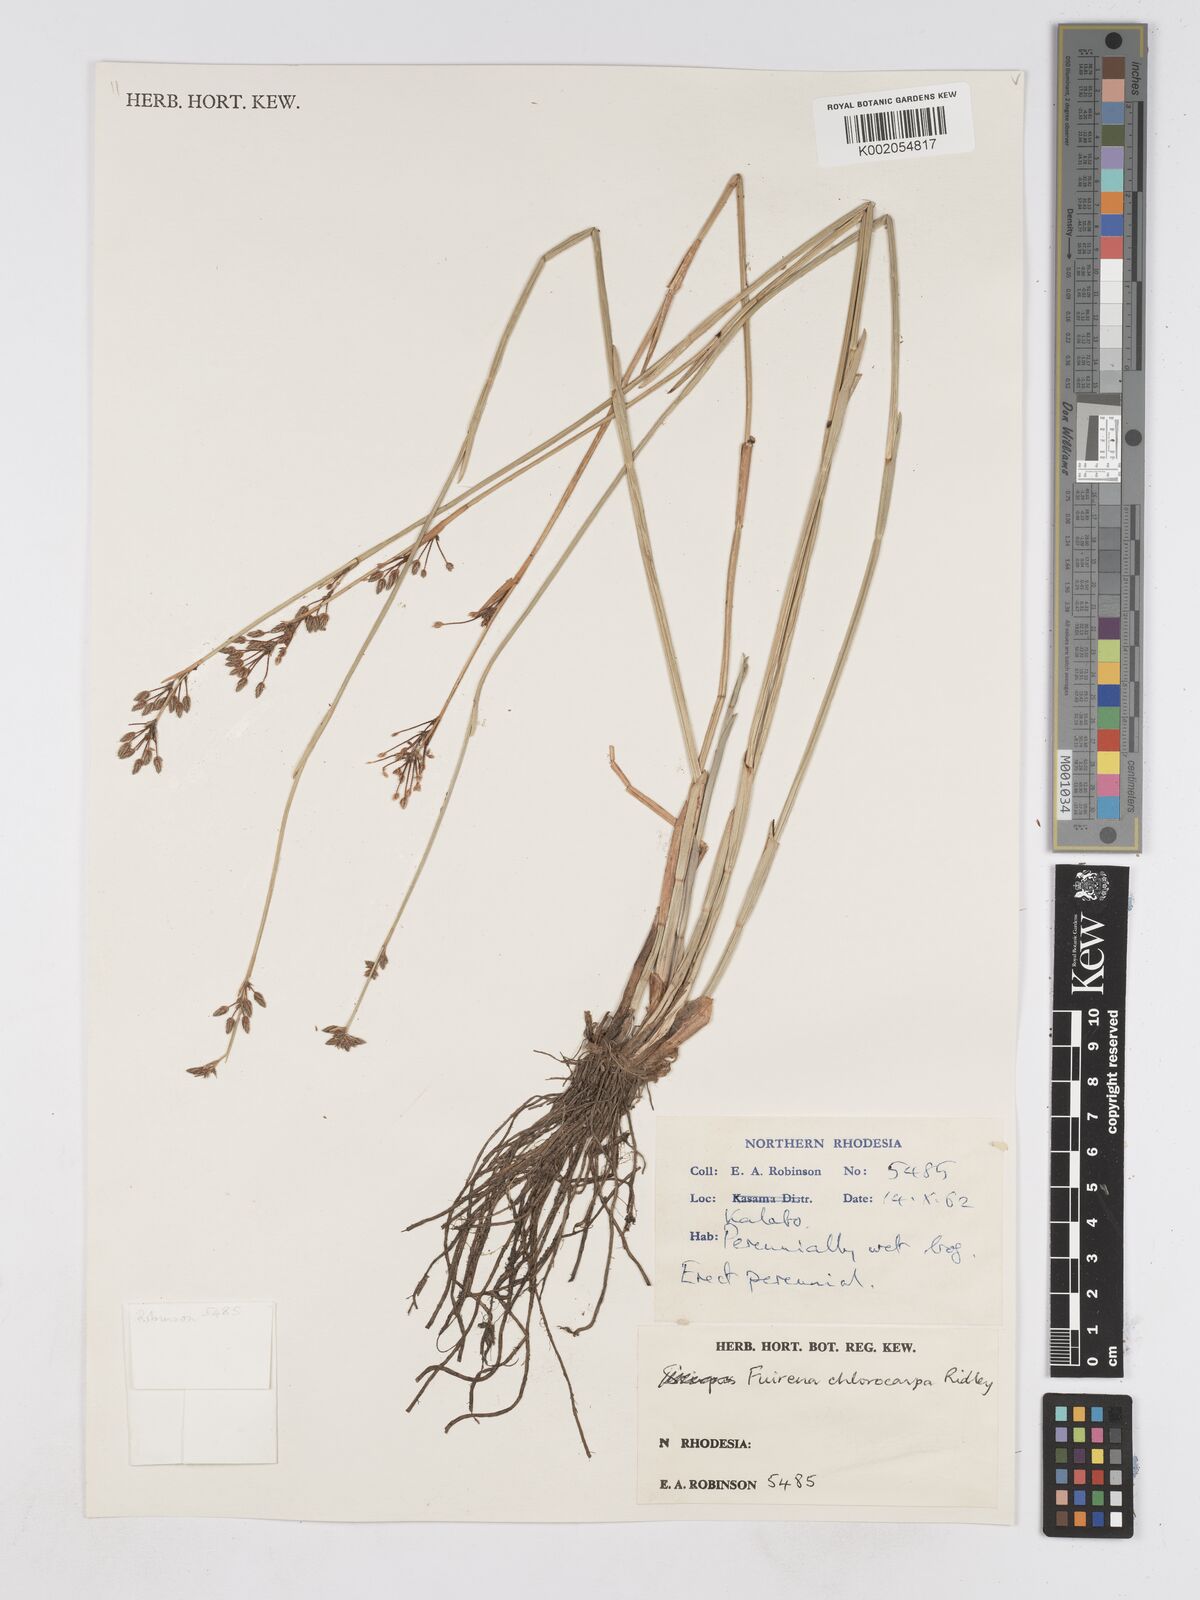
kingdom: Plantae
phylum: Tracheophyta
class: Liliopsida
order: Poales
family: Cyperaceae
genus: Fuirena
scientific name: Fuirena stricta
